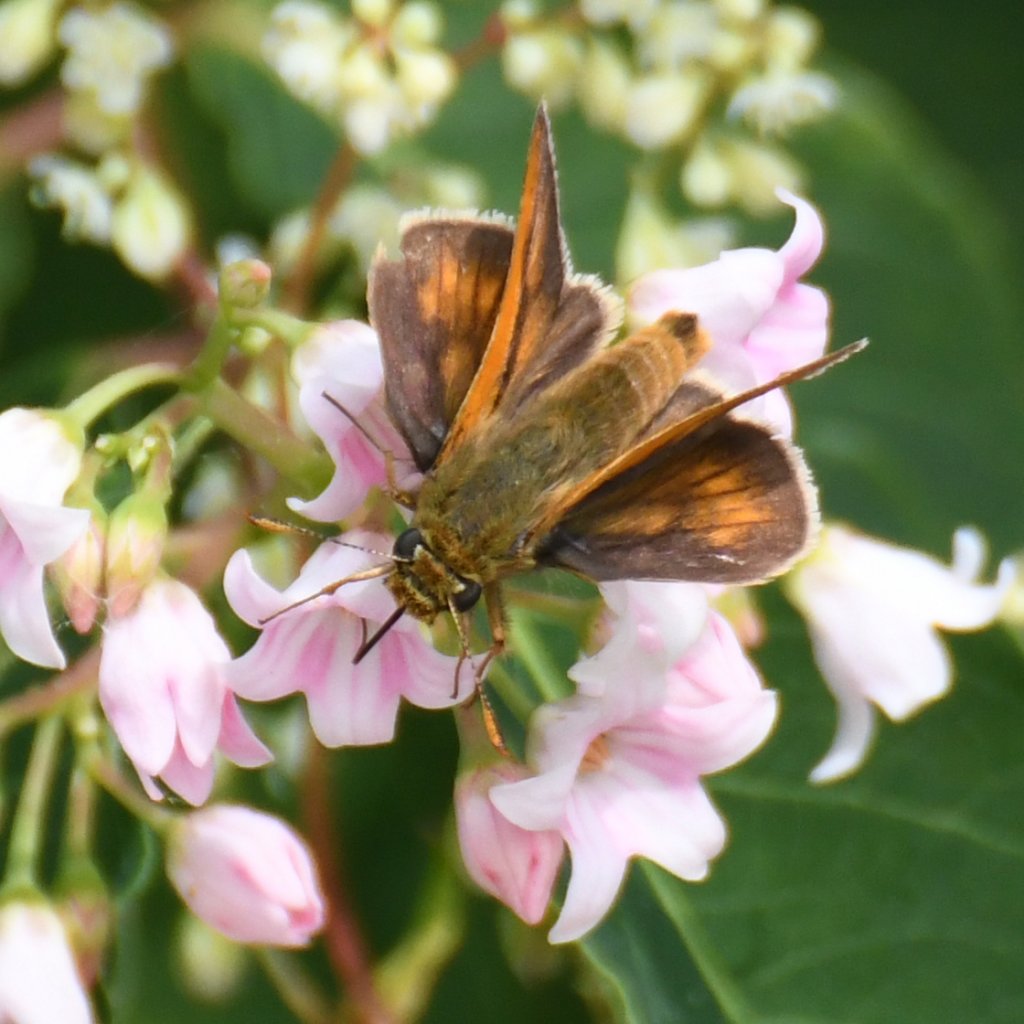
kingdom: Animalia
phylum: Arthropoda
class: Insecta
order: Lepidoptera
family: Hesperiidae
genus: Polites
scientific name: Polites
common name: Long Dash Skipper
